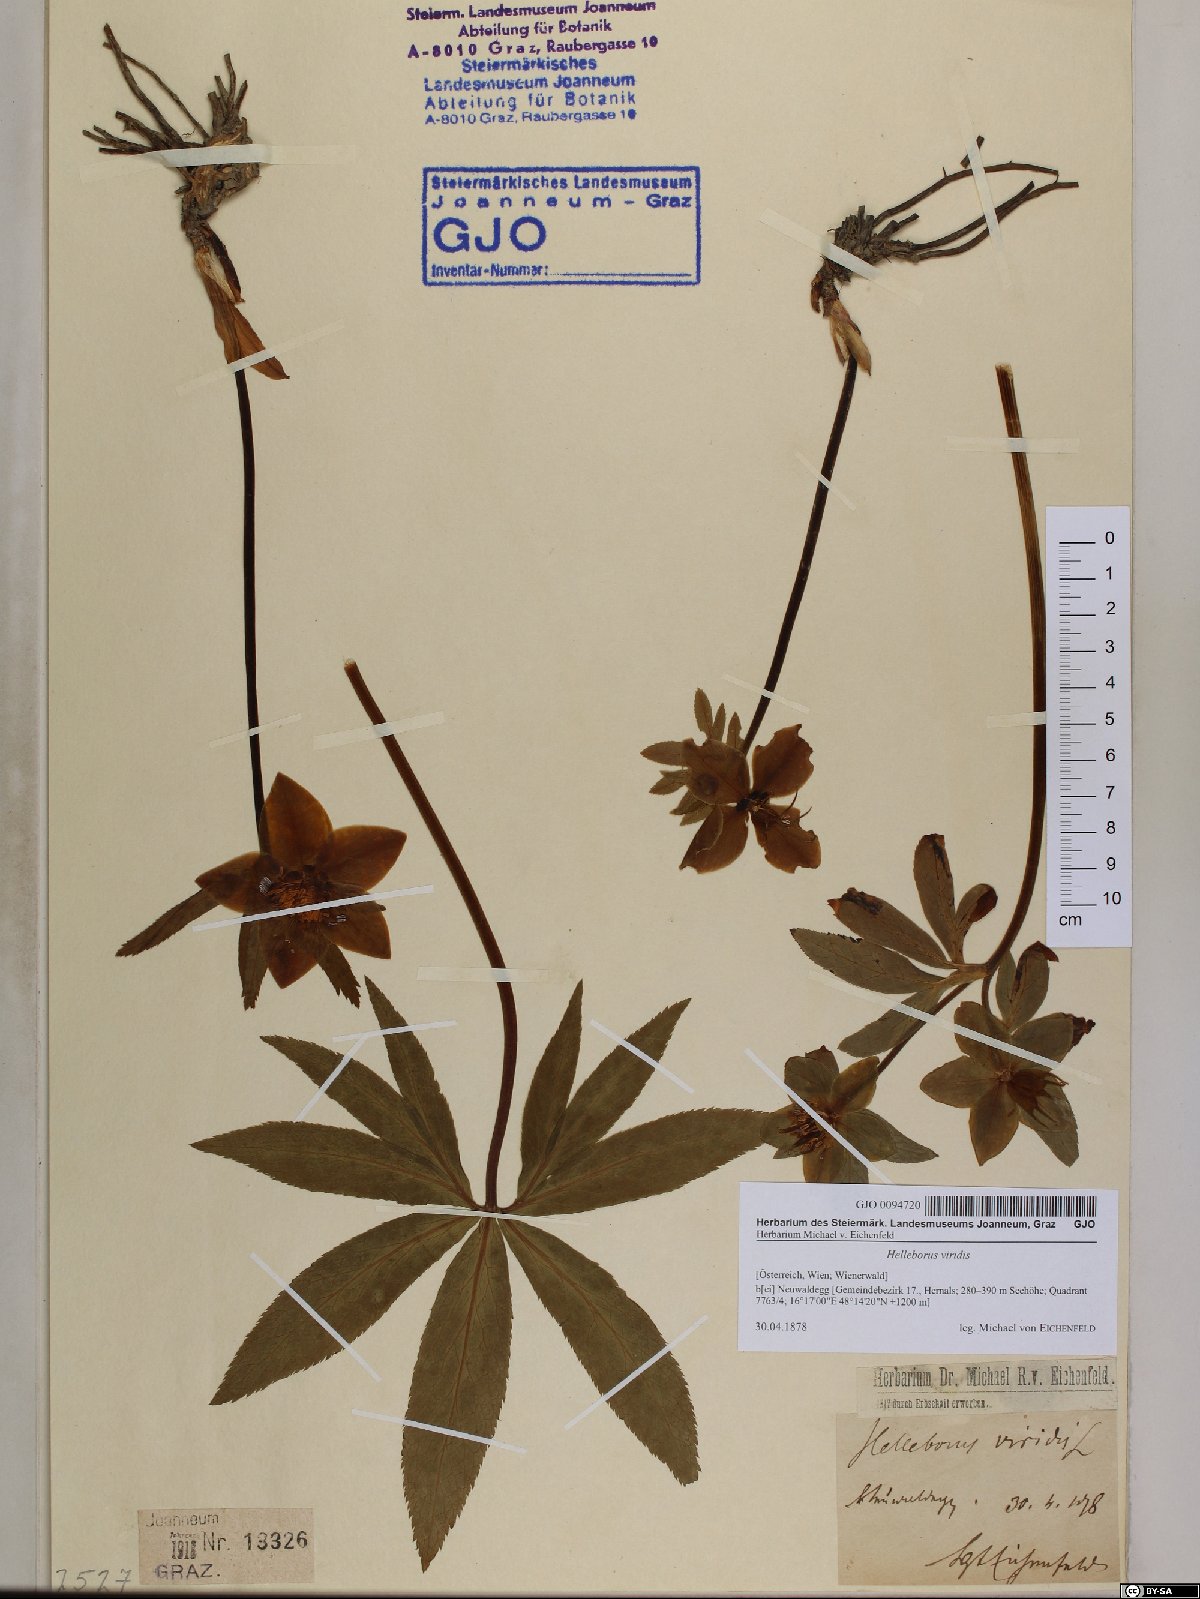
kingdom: Plantae
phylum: Tracheophyta
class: Magnoliopsida
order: Ranunculales
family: Ranunculaceae
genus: Helleborus
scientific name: Helleborus viridis
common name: Green hellebore
